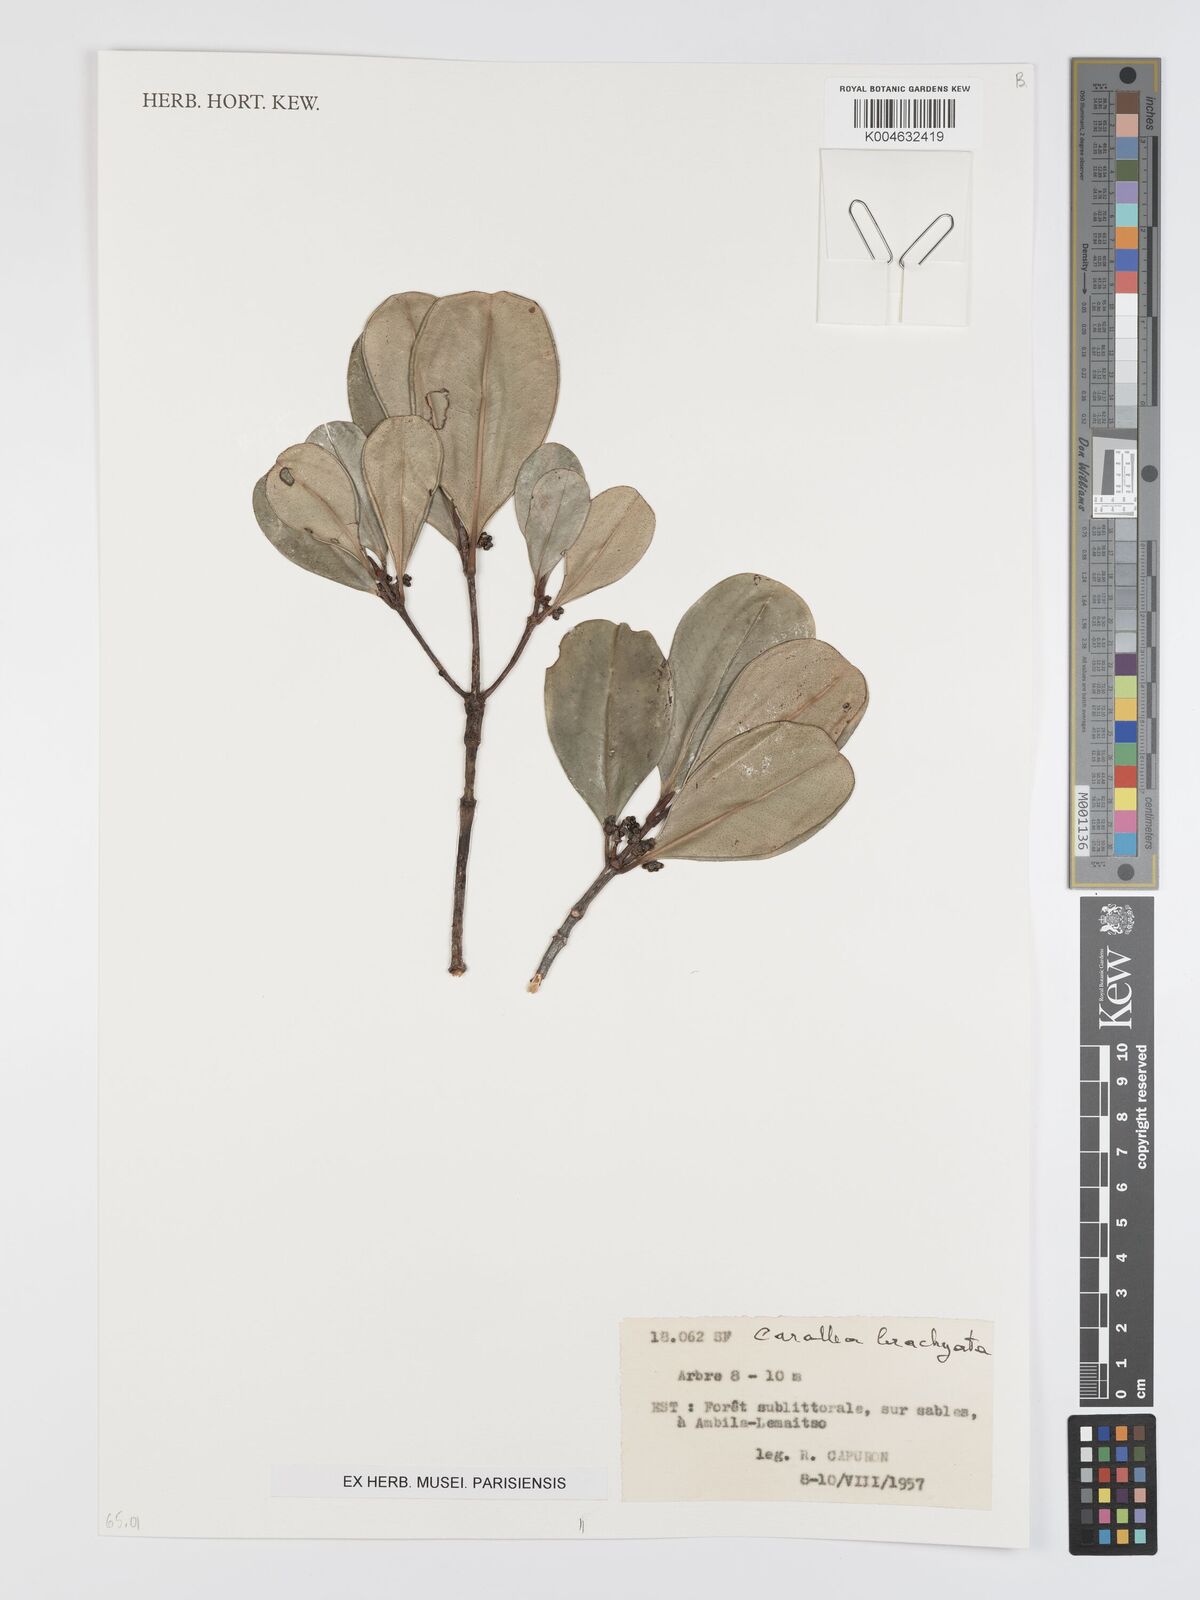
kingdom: Plantae
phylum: Tracheophyta
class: Magnoliopsida
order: Malpighiales
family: Rhizophoraceae
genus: Carallia
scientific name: Carallia brachiata
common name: Carallawood
